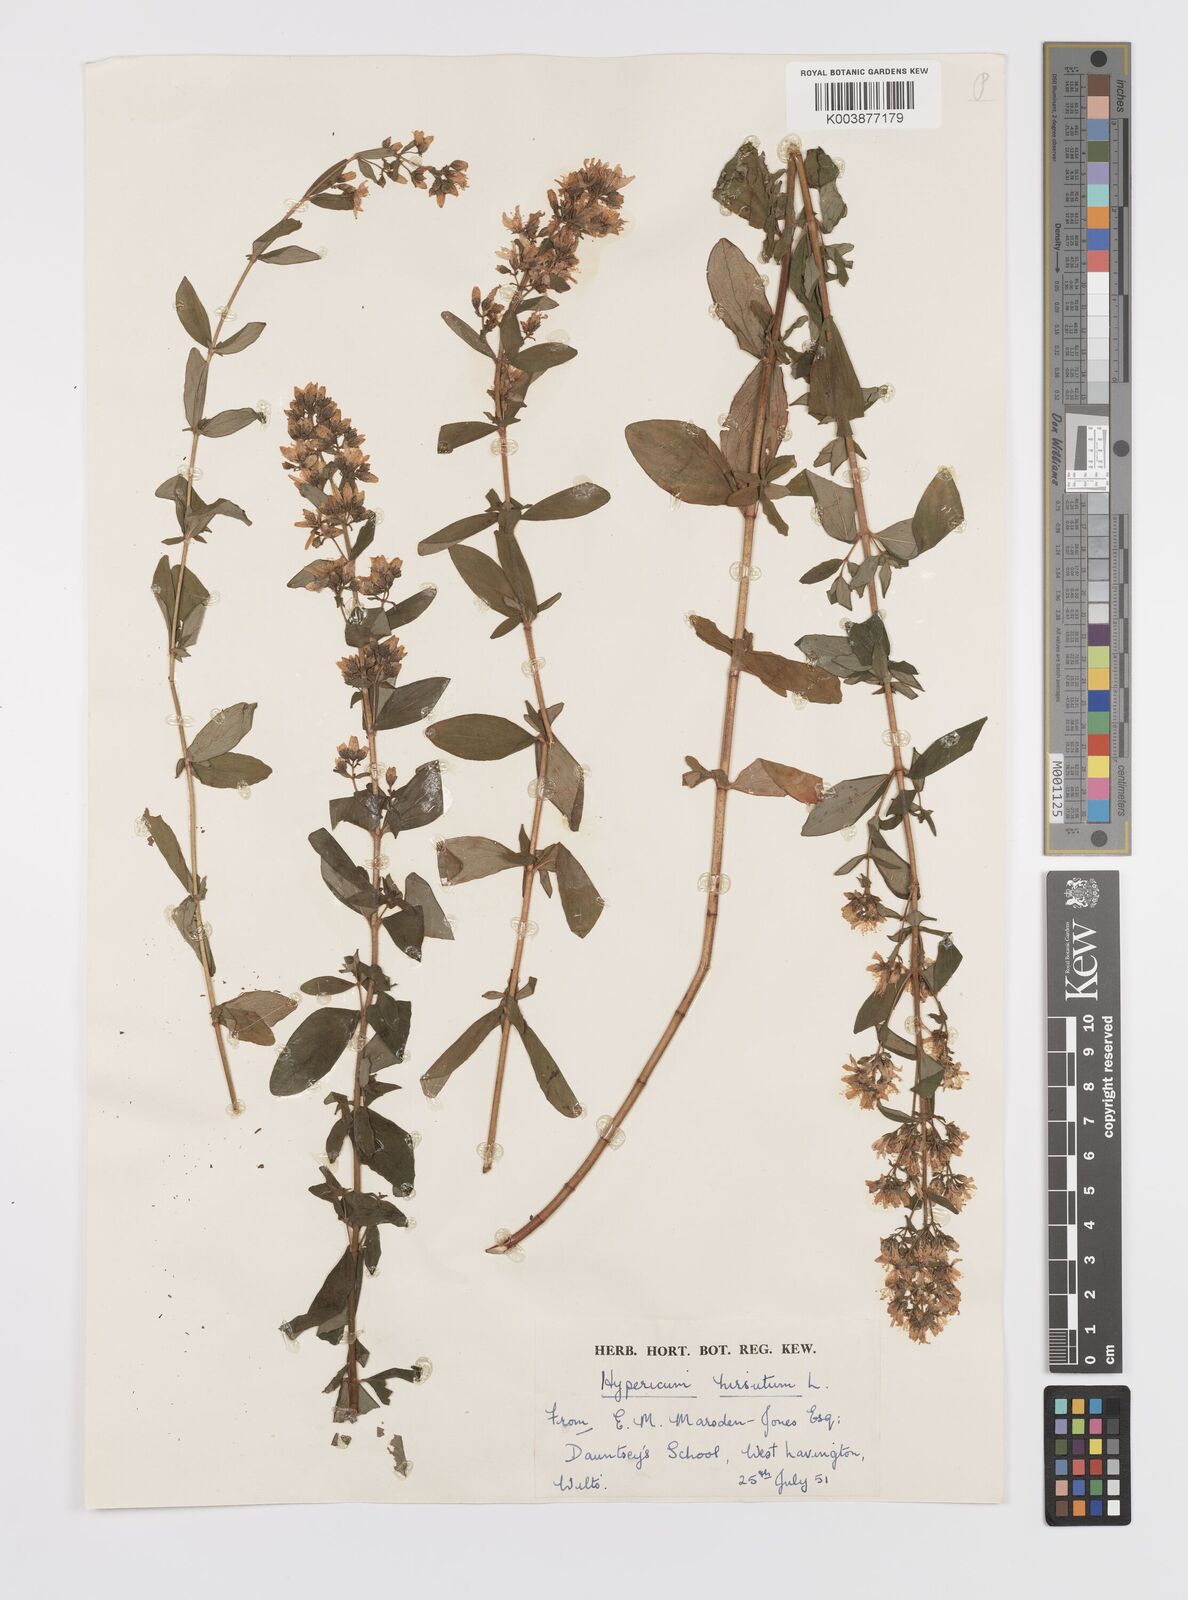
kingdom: Plantae
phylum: Tracheophyta
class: Magnoliopsida
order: Malpighiales
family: Hypericaceae
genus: Hypericum
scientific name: Hypericum hirsutum
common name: Hairy st. john's-wort
